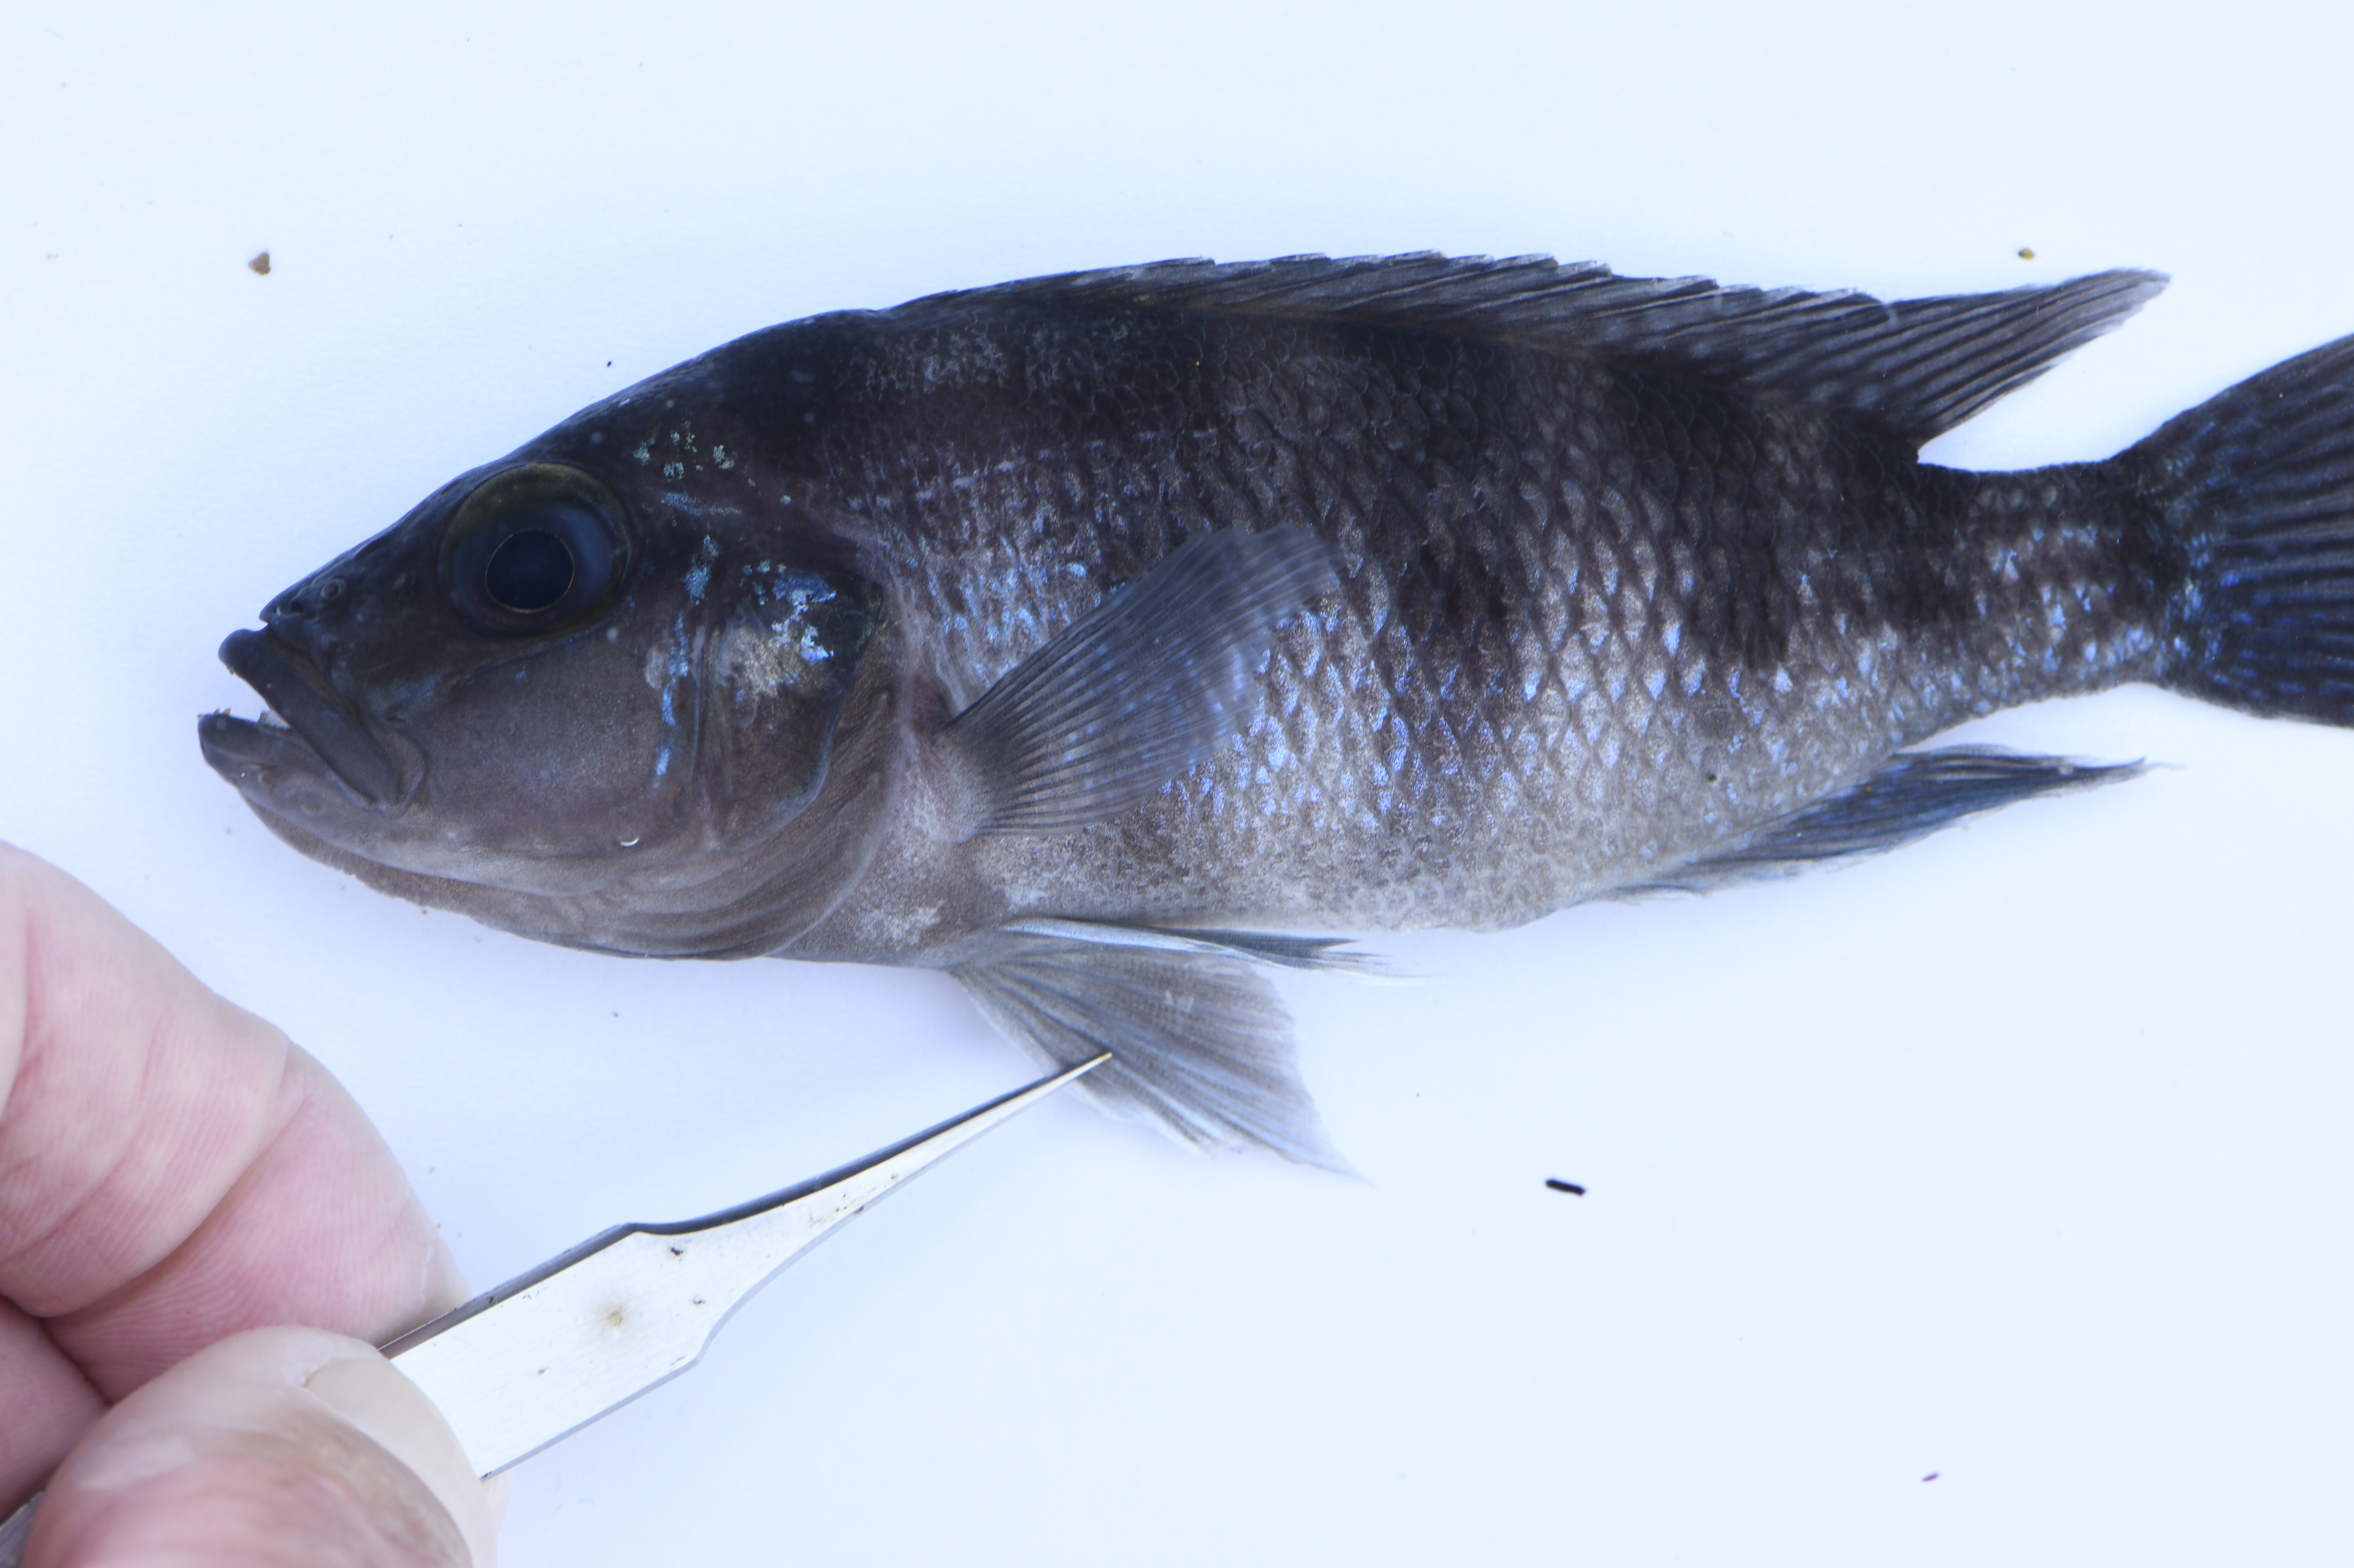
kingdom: Animalia
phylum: Chordata
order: Perciformes
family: Cichlidae
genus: Neolamprologus
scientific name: Neolamprologus sexfasciatus
